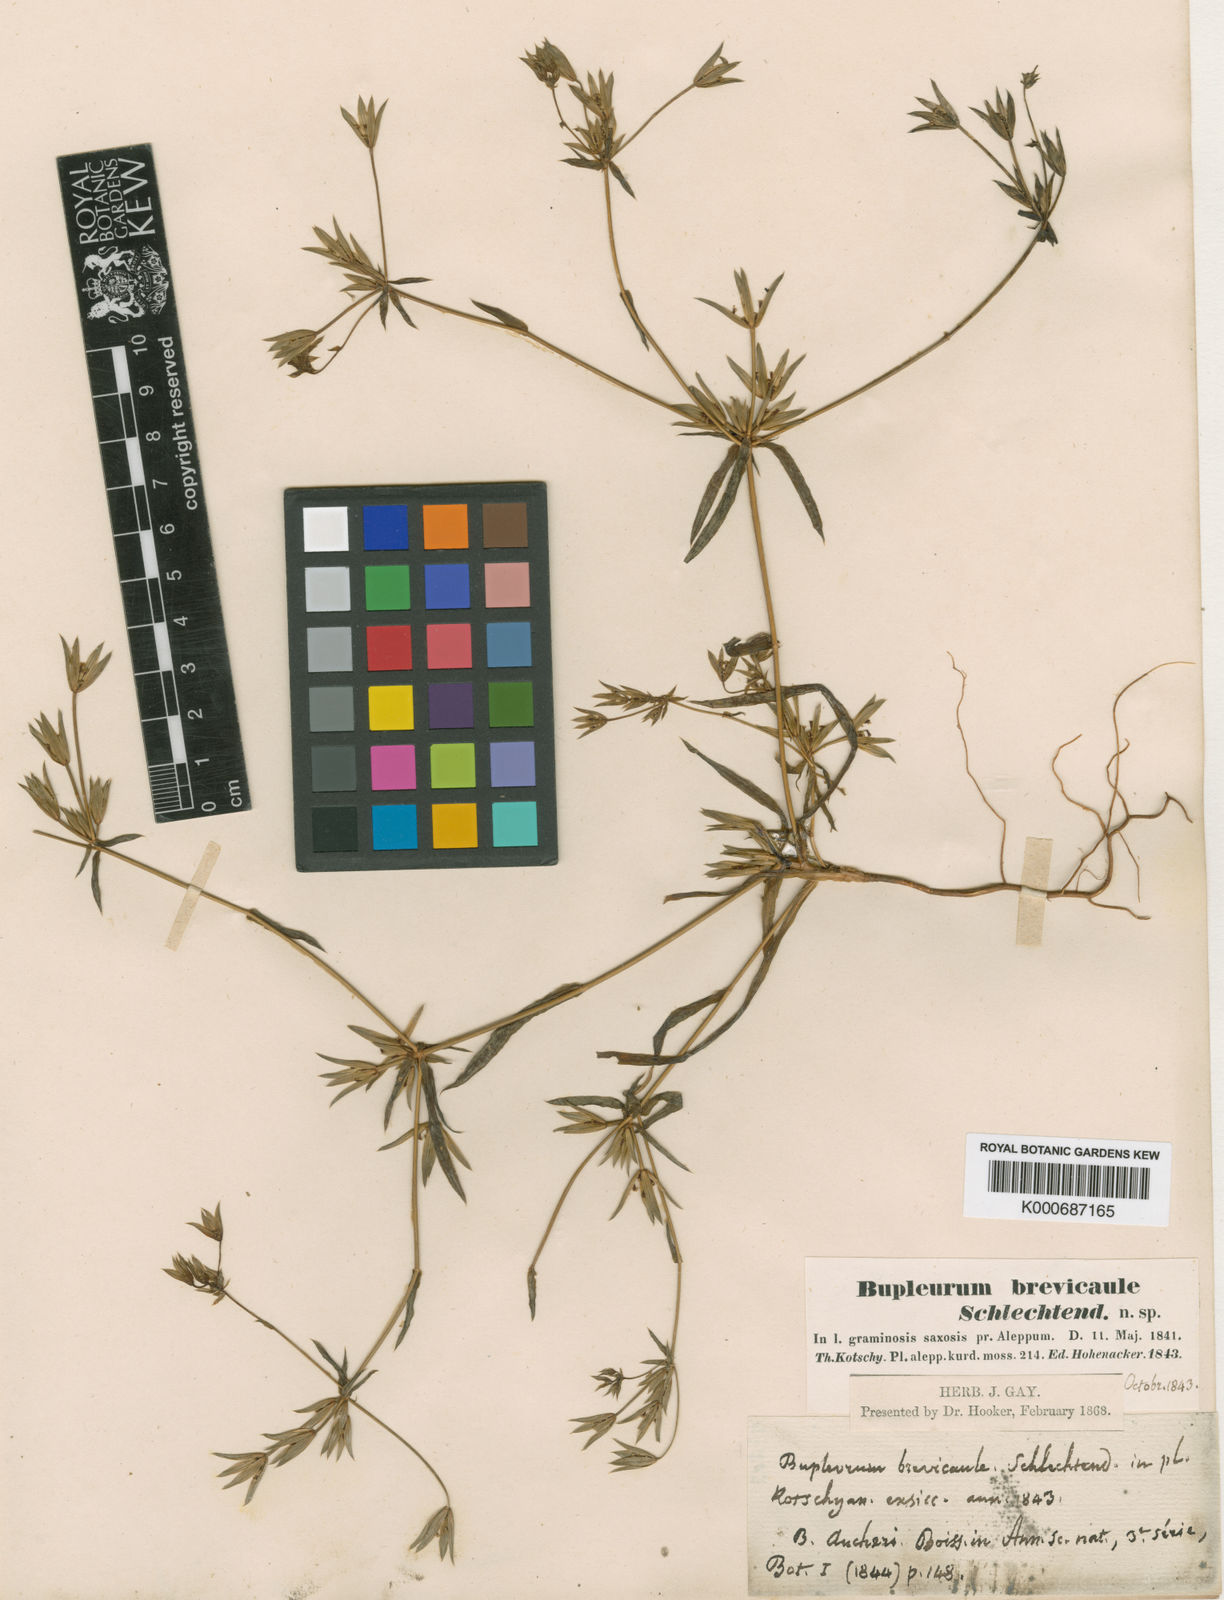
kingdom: Plantae
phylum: Tracheophyta
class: Magnoliopsida
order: Apiales
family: Apiaceae
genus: Bupleurum
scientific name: Bupleurum brevicaule
